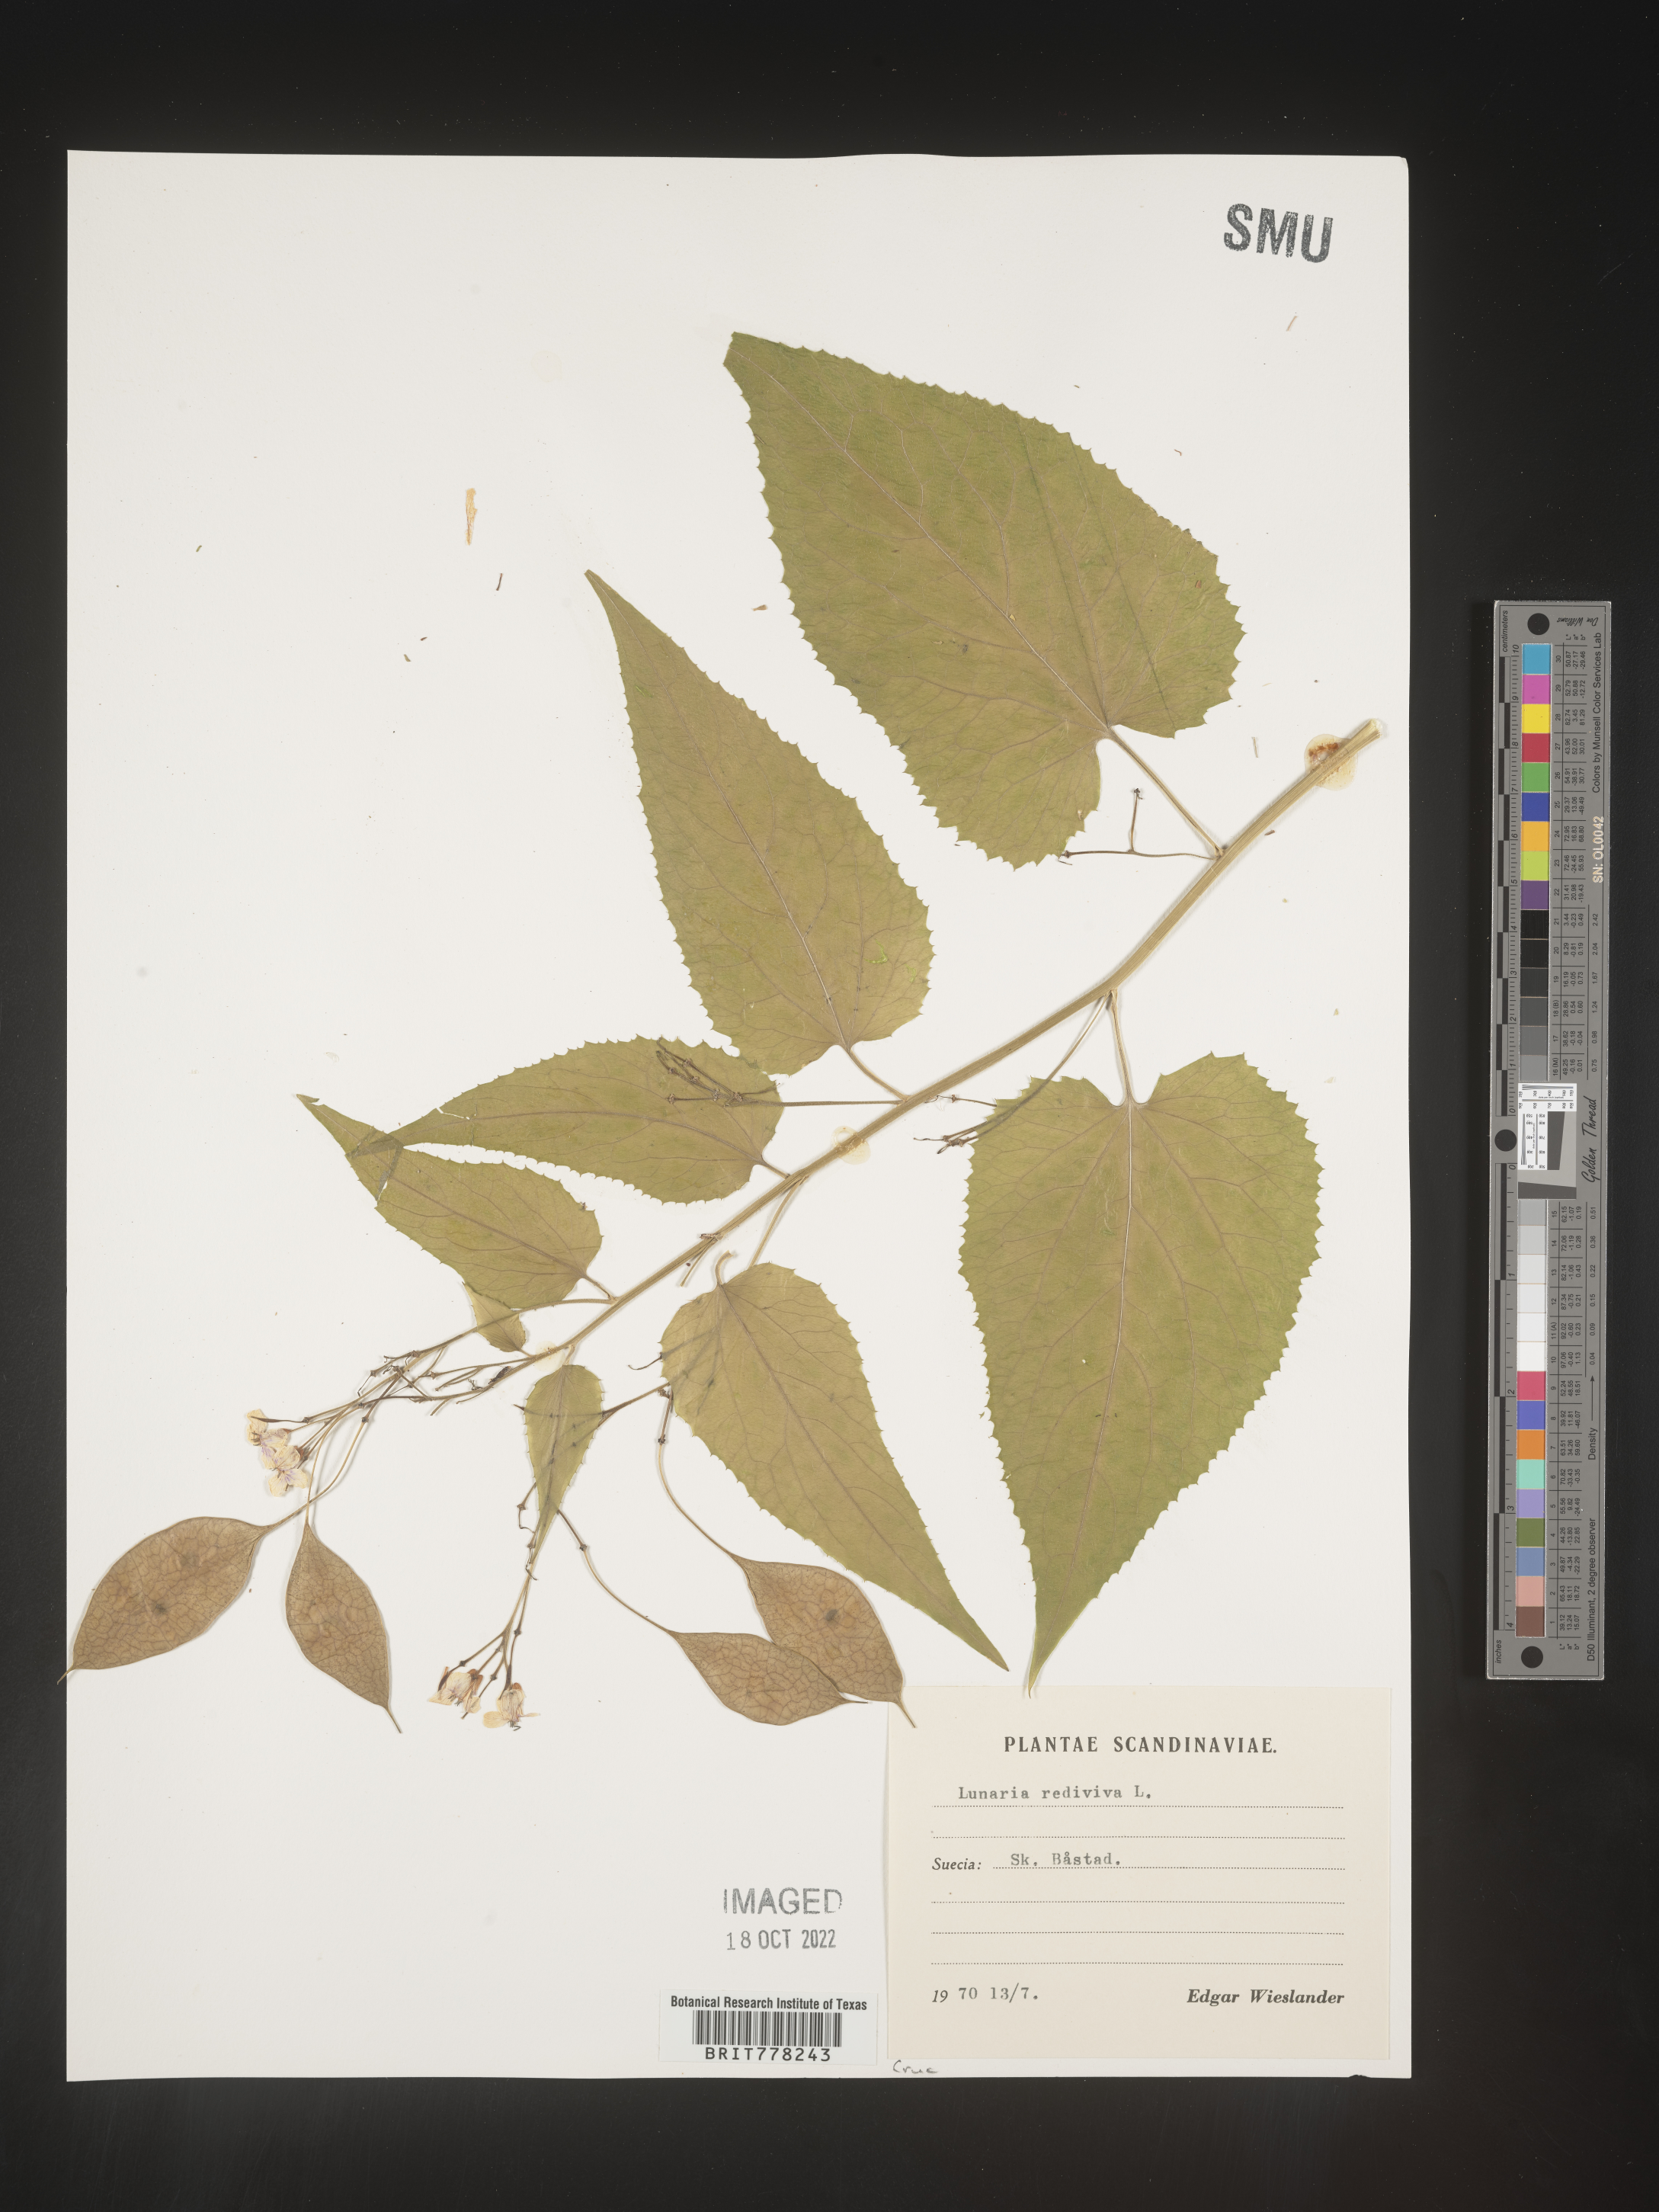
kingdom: Plantae
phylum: Tracheophyta
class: Magnoliopsida
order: Brassicales
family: Brassicaceae
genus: Lunaria
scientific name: Lunaria
